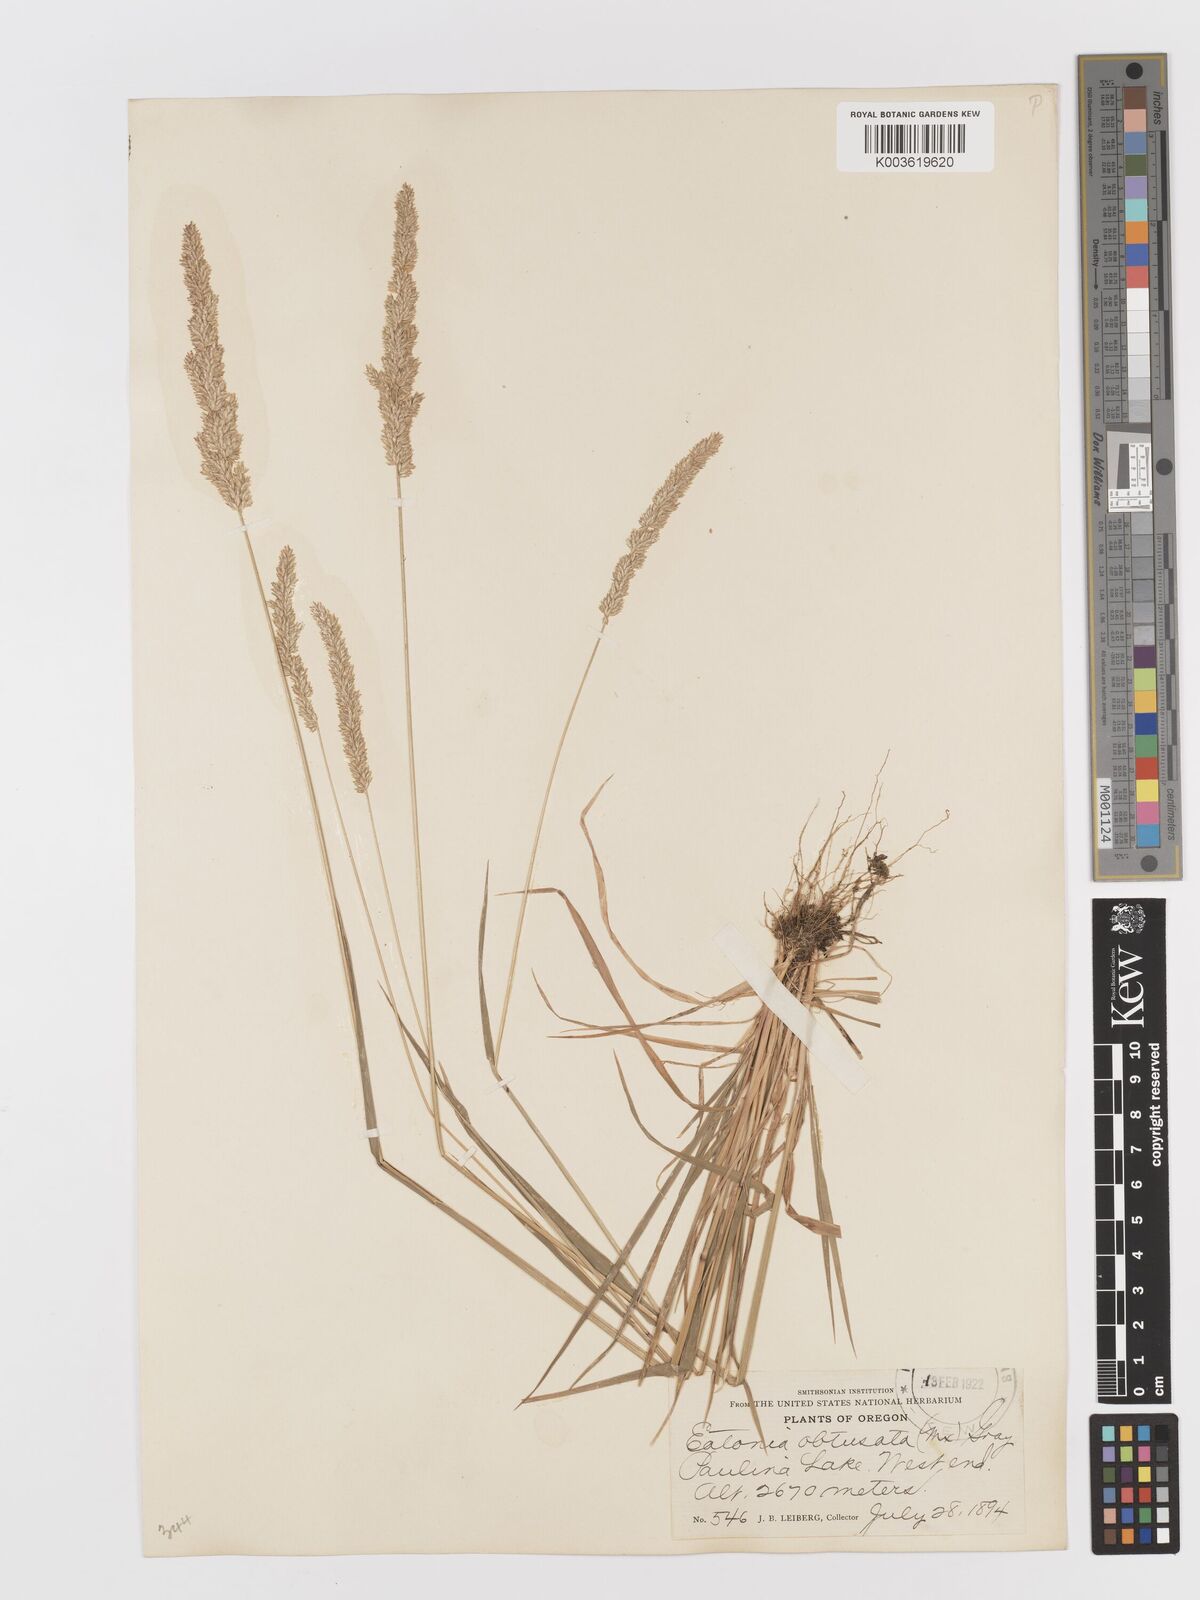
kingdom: Plantae
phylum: Tracheophyta
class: Liliopsida
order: Poales
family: Poaceae
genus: Sphenopholis
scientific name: Sphenopholis obtusata
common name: Prairie grass
